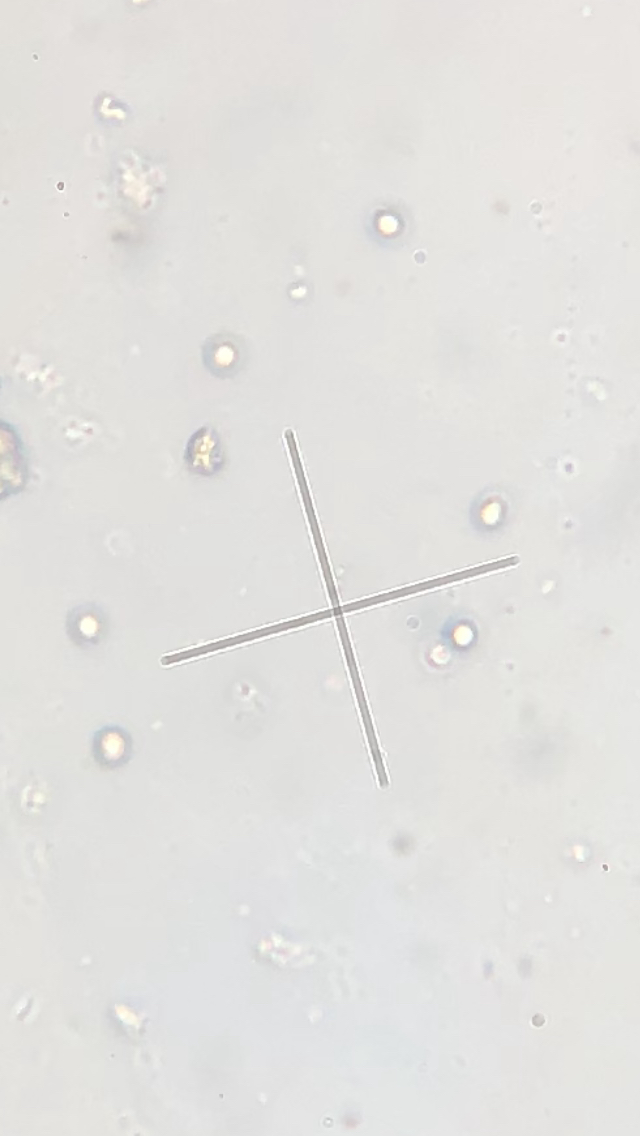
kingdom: Fungi
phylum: Basidiomycota
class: Agaricomycetes
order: Russulales
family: Auriscalpiaceae
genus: Lentinellus
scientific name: Lentinellus ursinus
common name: børstehåret savbladhat
